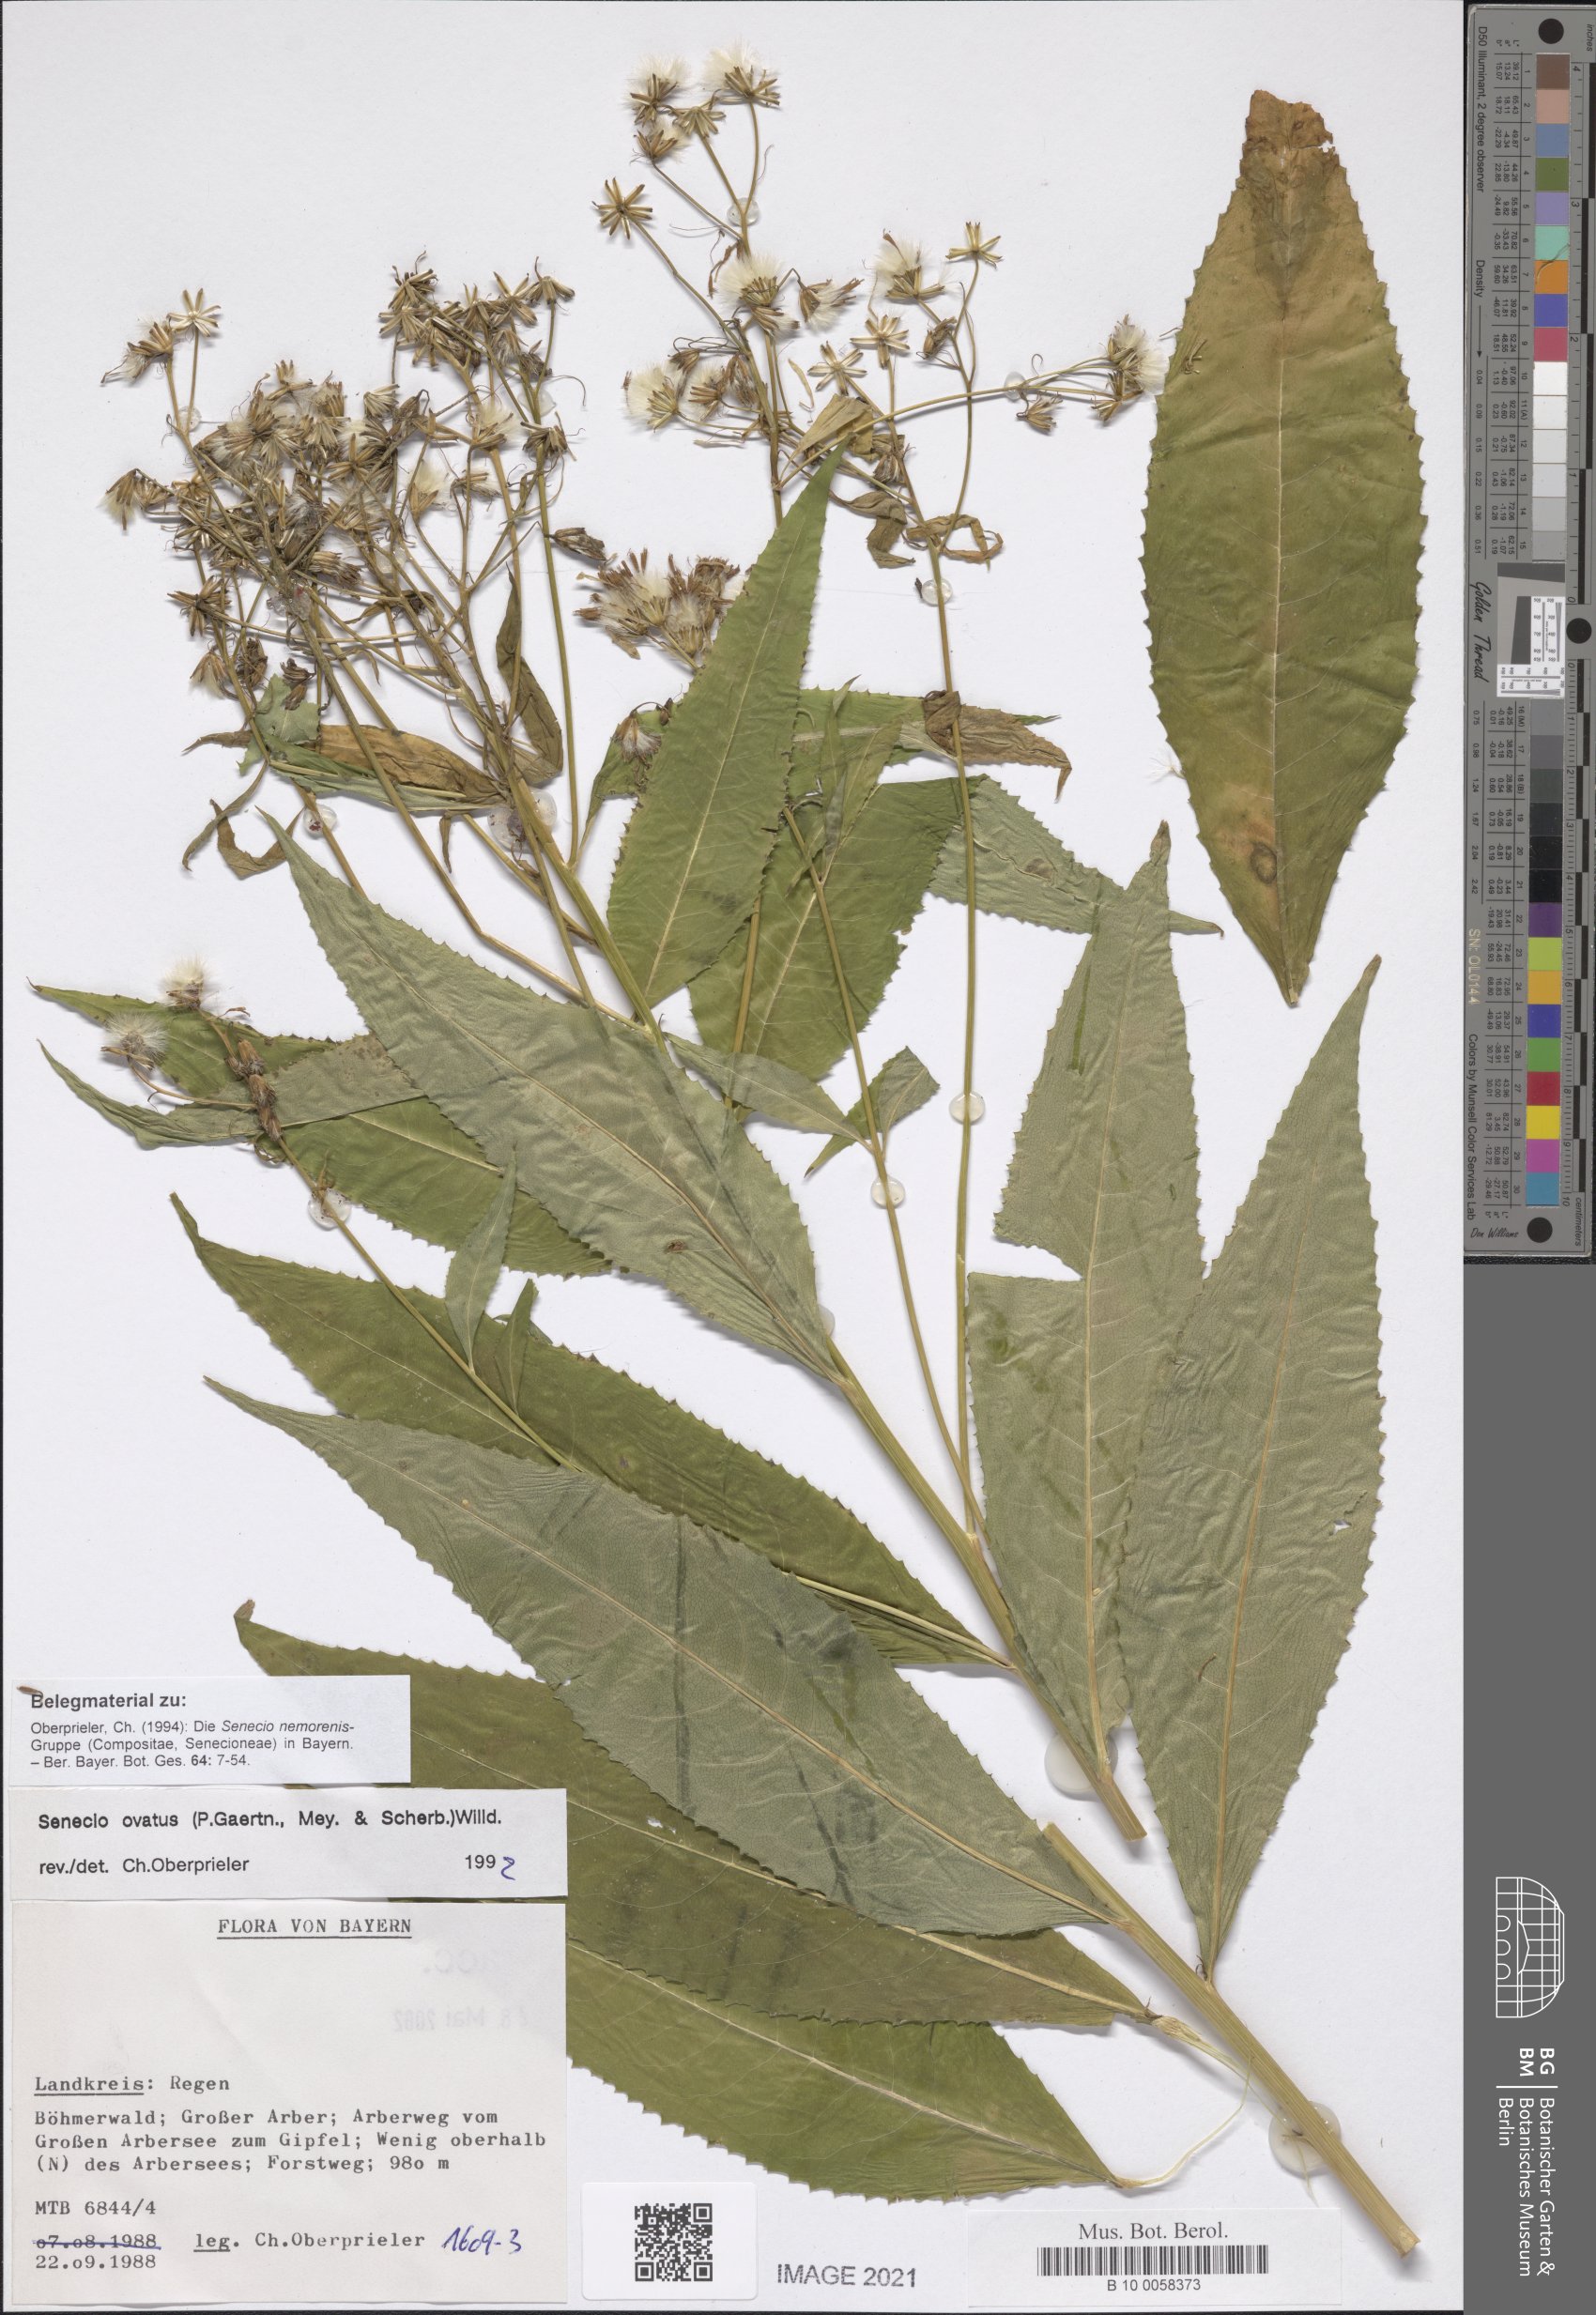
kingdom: Plantae
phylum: Tracheophyta
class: Magnoliopsida
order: Asterales
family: Asteraceae
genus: Senecio
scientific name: Senecio ovatus
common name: Wood ragwort
